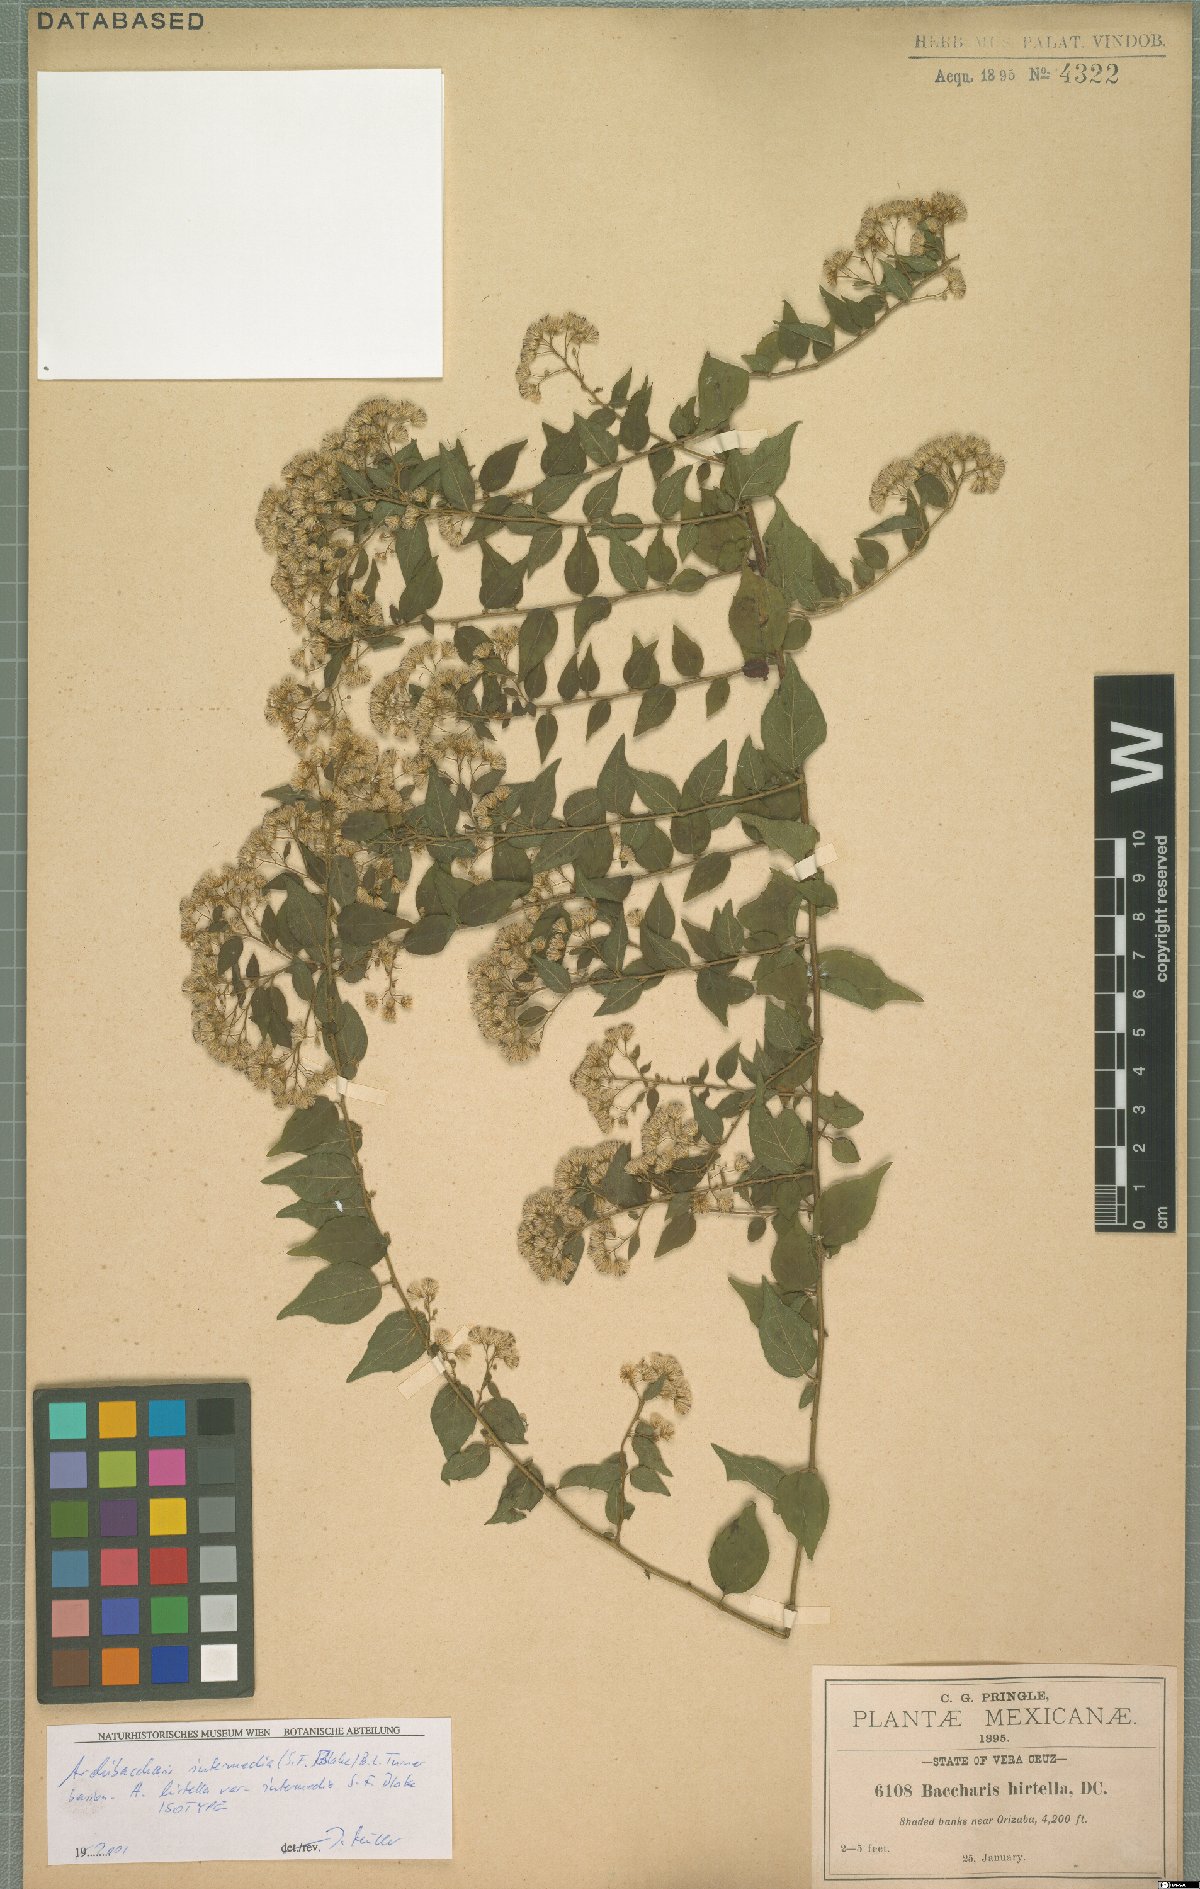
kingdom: Plantae
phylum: Tracheophyta
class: Magnoliopsida
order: Asterales
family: Asteraceae
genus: Archibaccharis
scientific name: Archibaccharis intermedia
